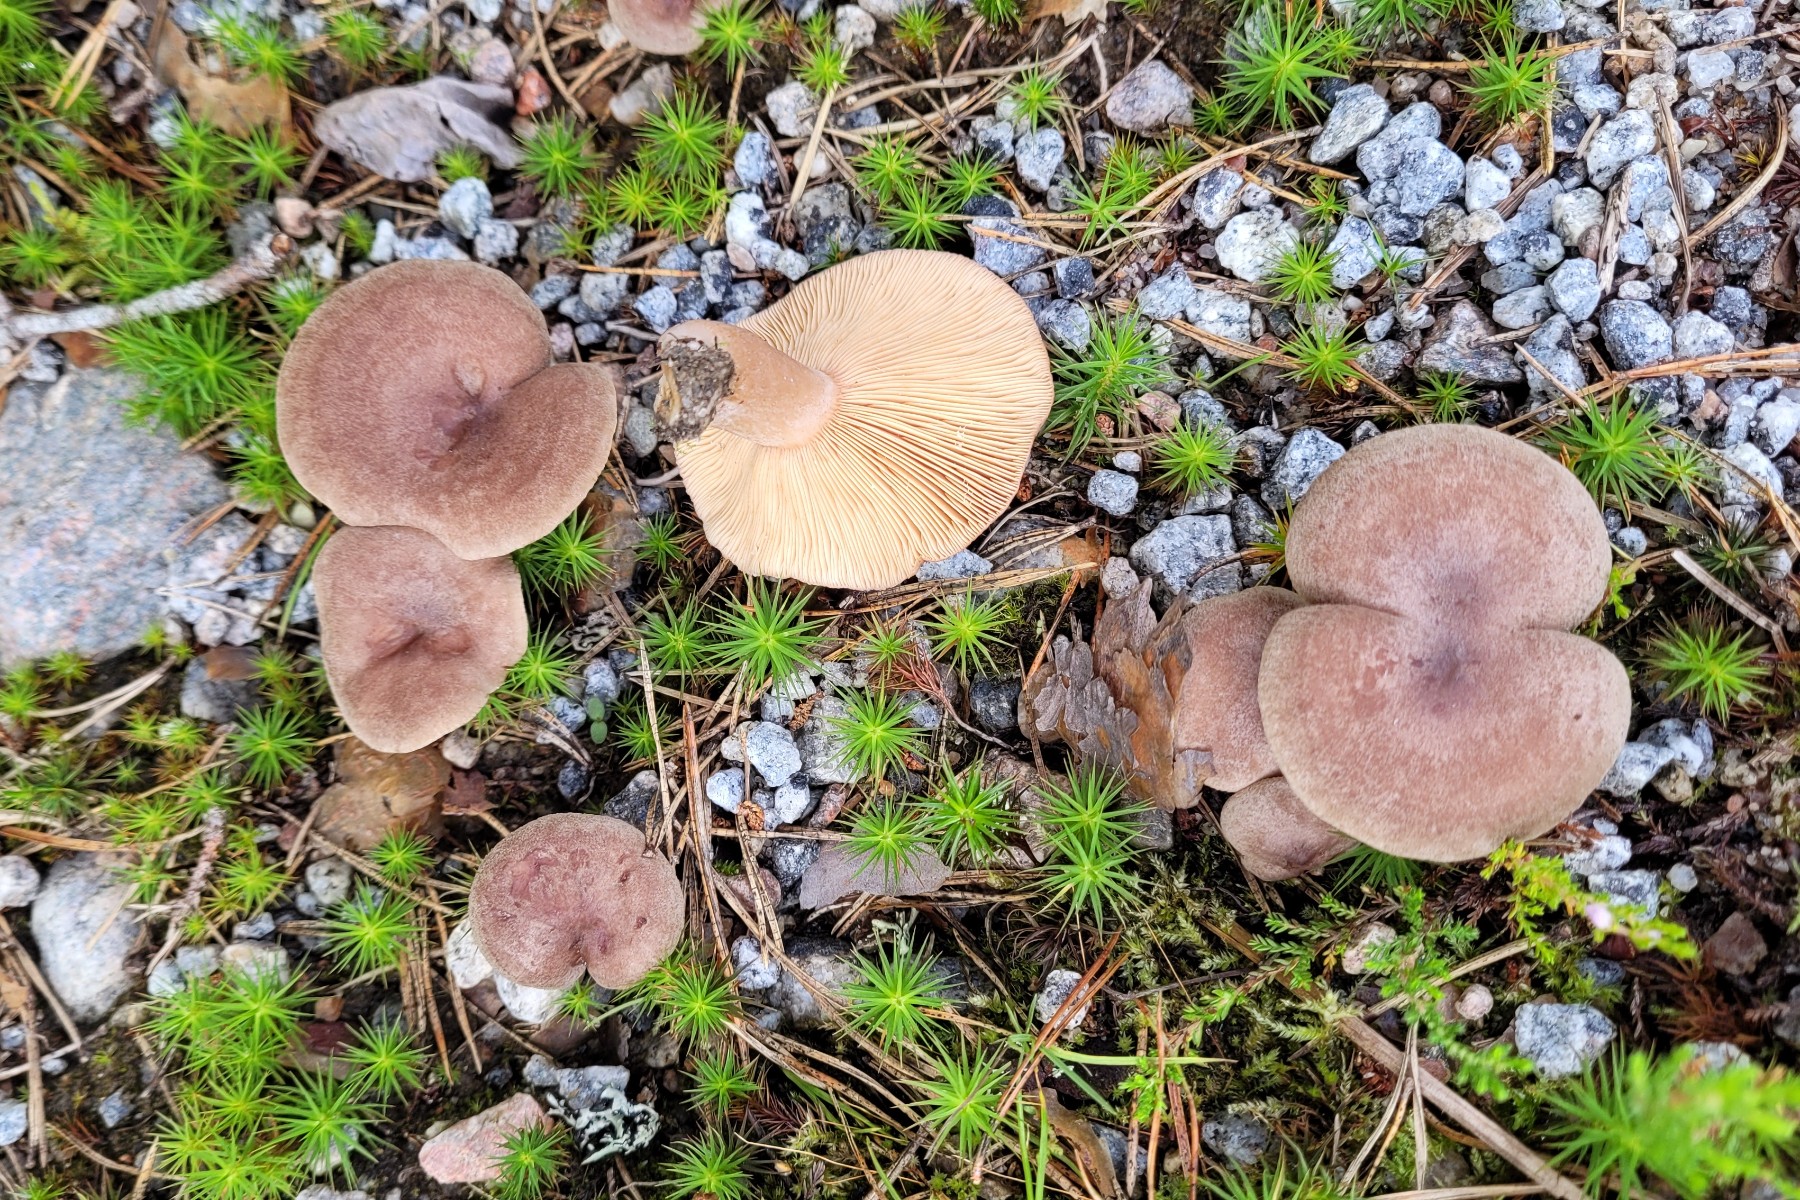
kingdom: Fungi
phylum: Basidiomycota
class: Agaricomycetes
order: Russulales
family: Russulaceae
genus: Lactarius
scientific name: Lactarius mammosus
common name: kokosbrun mælkehat
